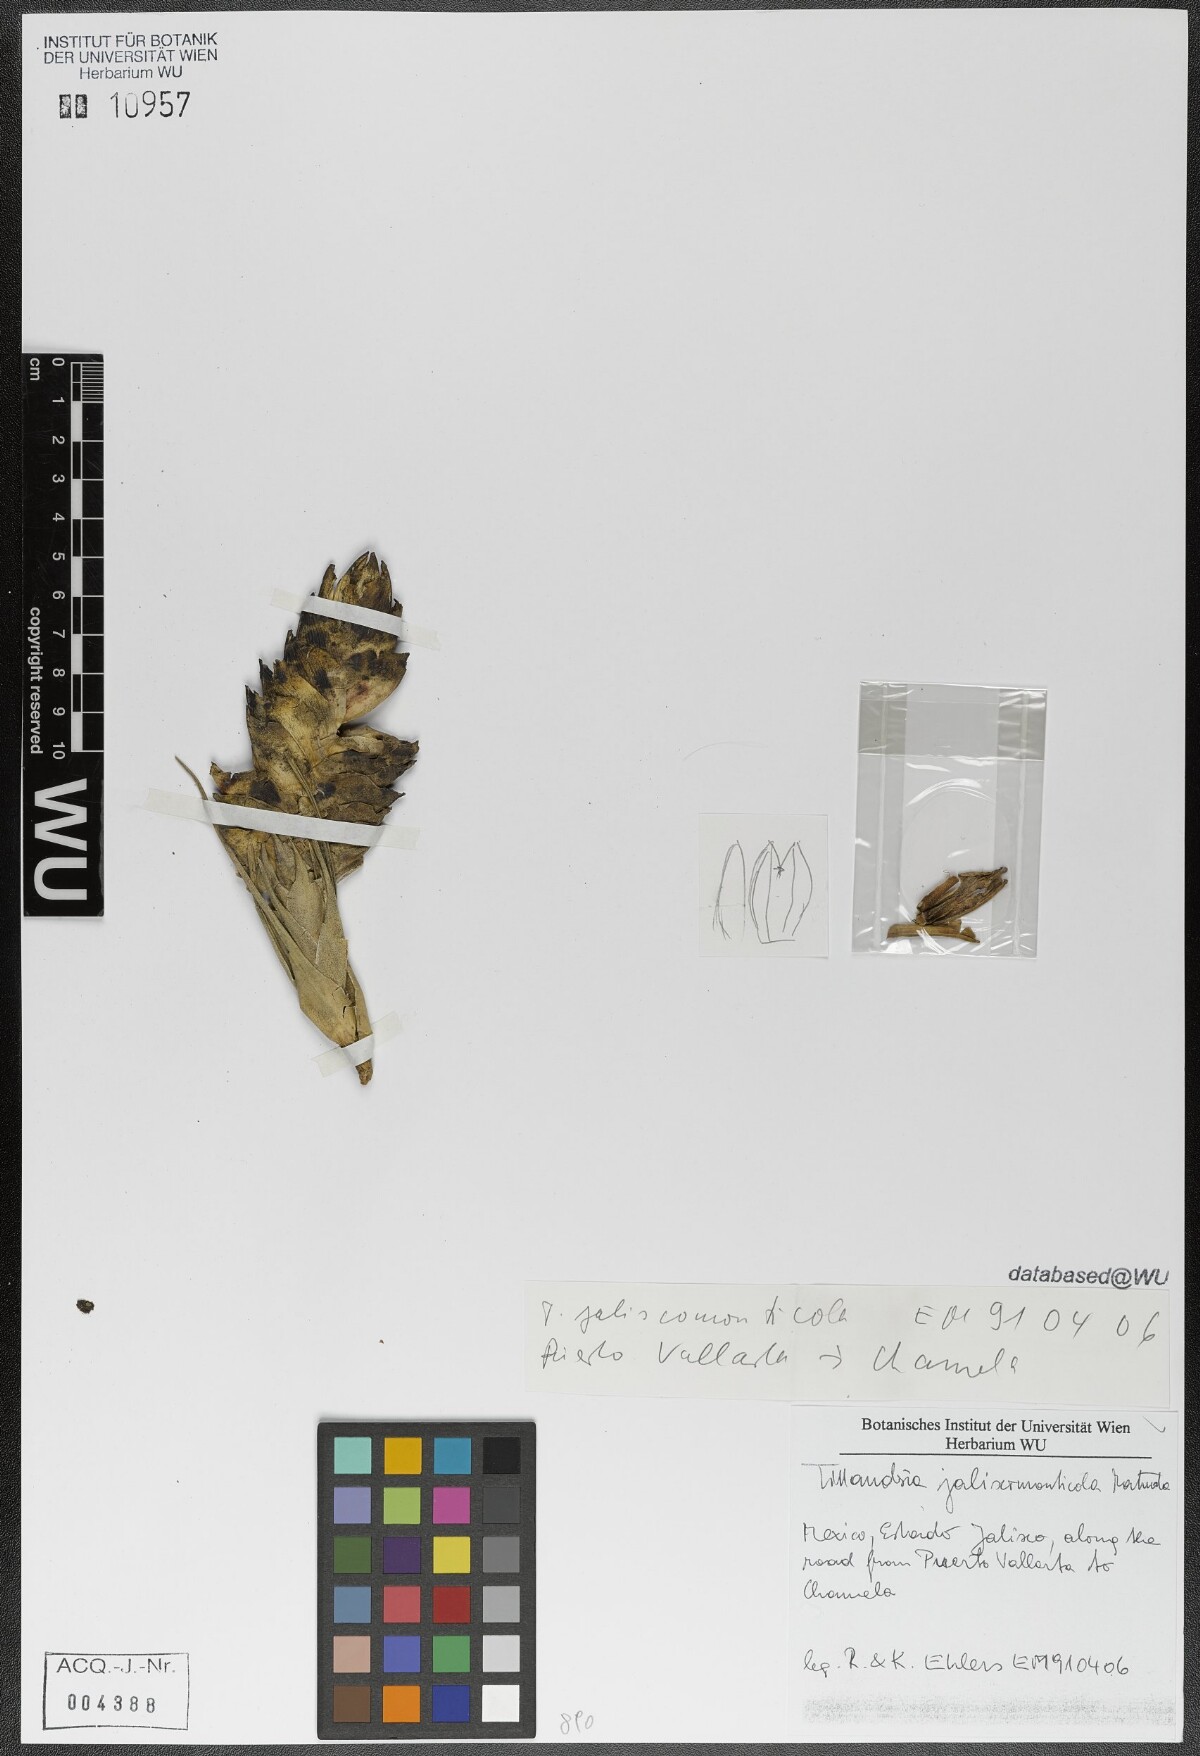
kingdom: Plantae
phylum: Tracheophyta
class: Liliopsida
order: Poales
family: Bromeliaceae
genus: Tillandsia
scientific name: Tillandsia compressa
